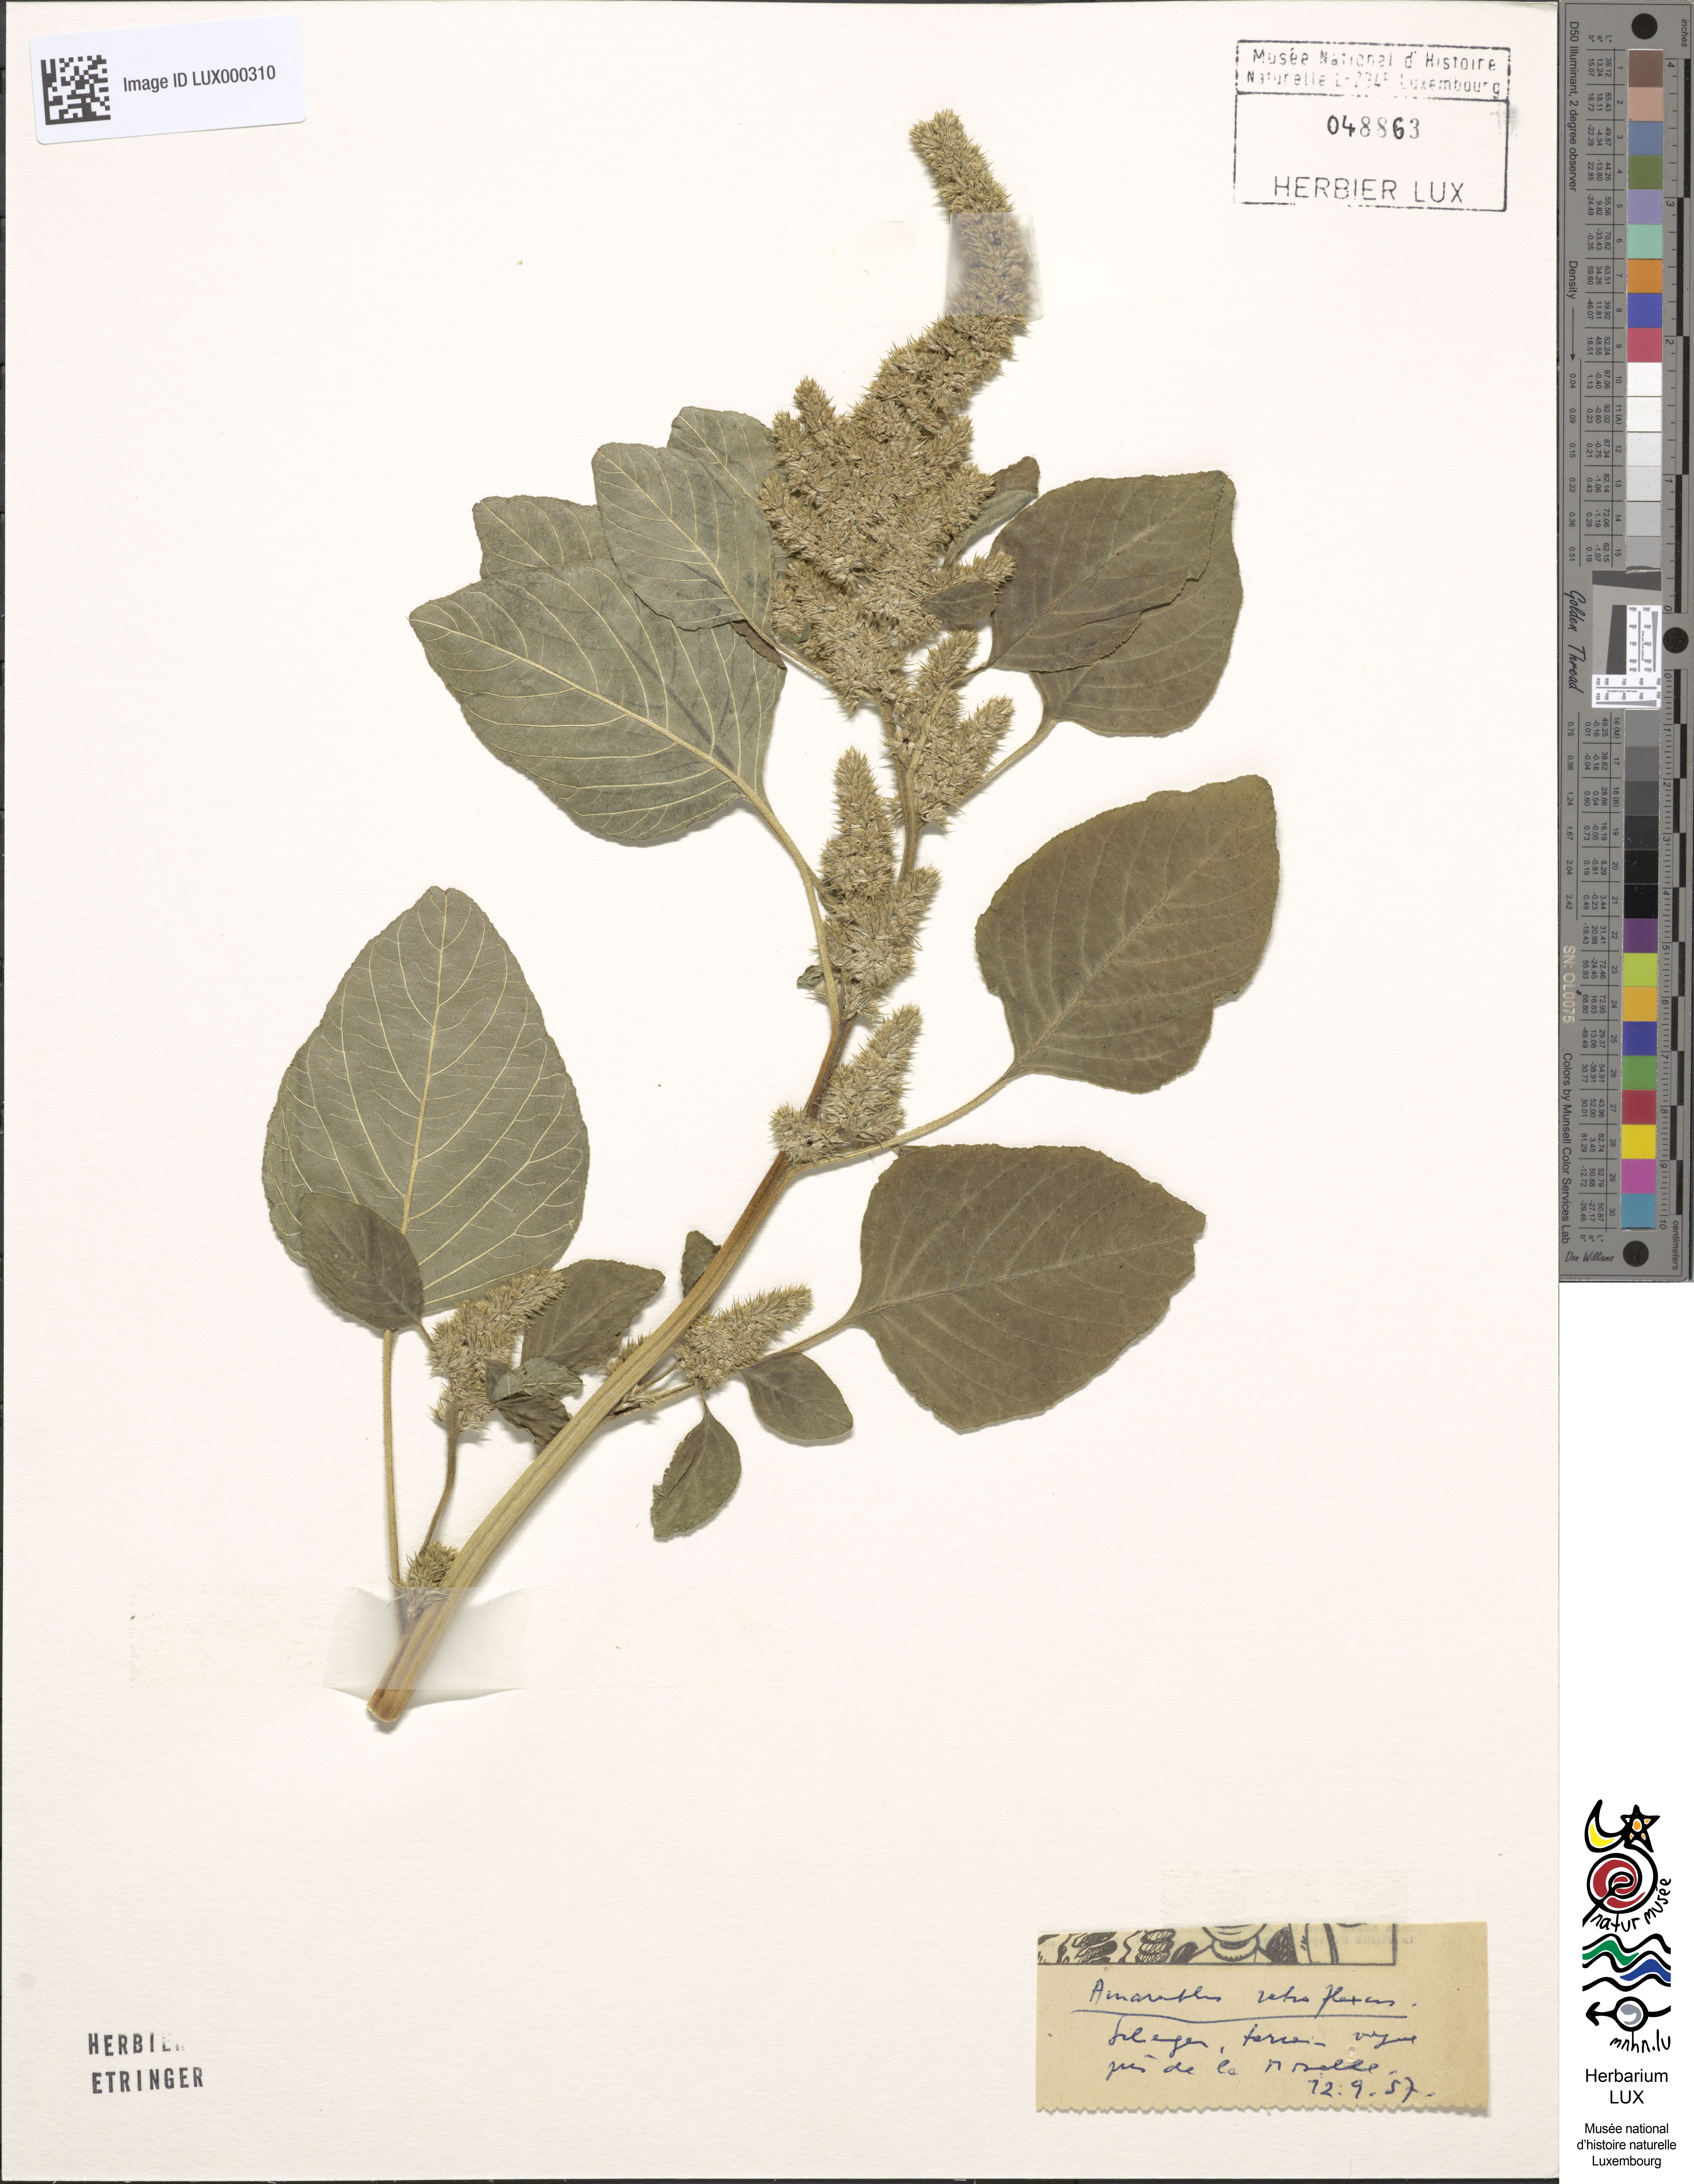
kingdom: Plantae
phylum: Tracheophyta
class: Magnoliopsida
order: Caryophyllales
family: Amaranthaceae
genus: Amaranthus
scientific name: Amaranthus retroflexus
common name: Redroot amaranth
